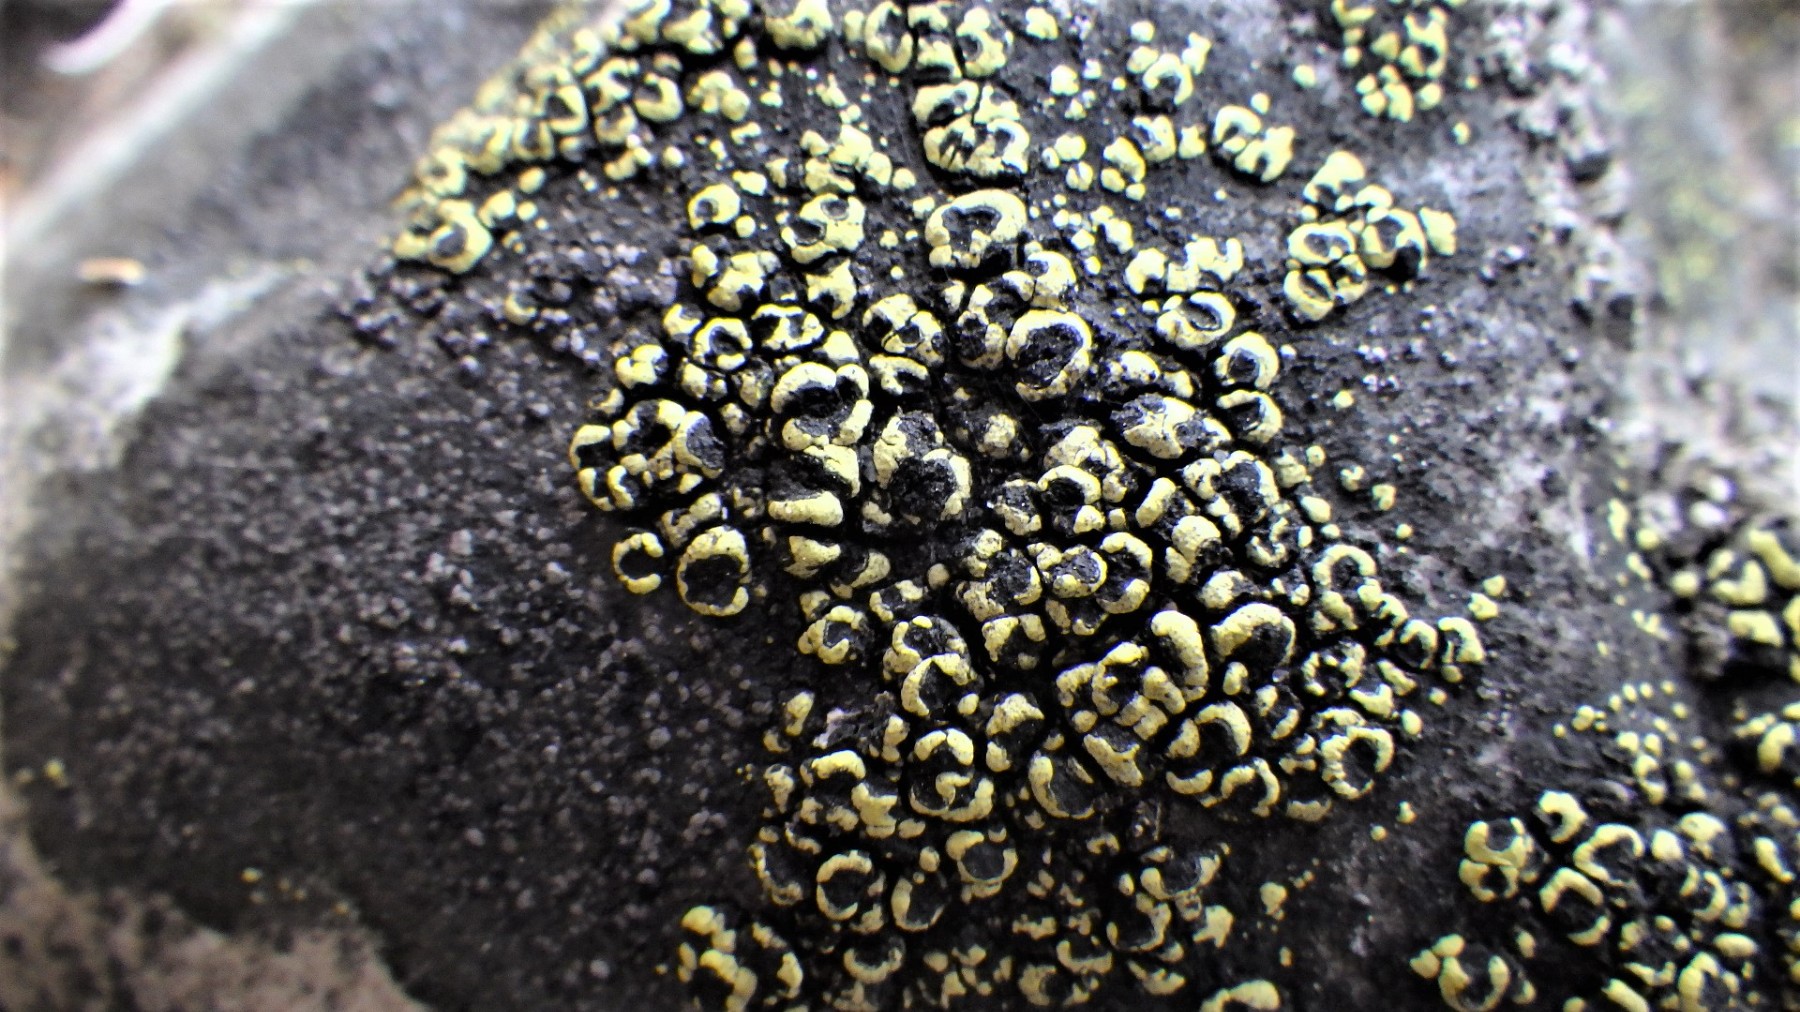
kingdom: Fungi
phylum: Ascomycota
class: Lecanoromycetes
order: Rhizocarpales
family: Rhizocarpaceae
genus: Rhizocarpon
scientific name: Rhizocarpon lecanorinum
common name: krave-landkortlav
